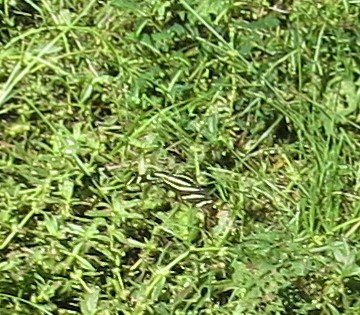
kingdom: Animalia
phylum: Arthropoda
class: Insecta
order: Lepidoptera
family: Nymphalidae
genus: Heliconius
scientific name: Heliconius charithonia
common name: Zebra Longwing
